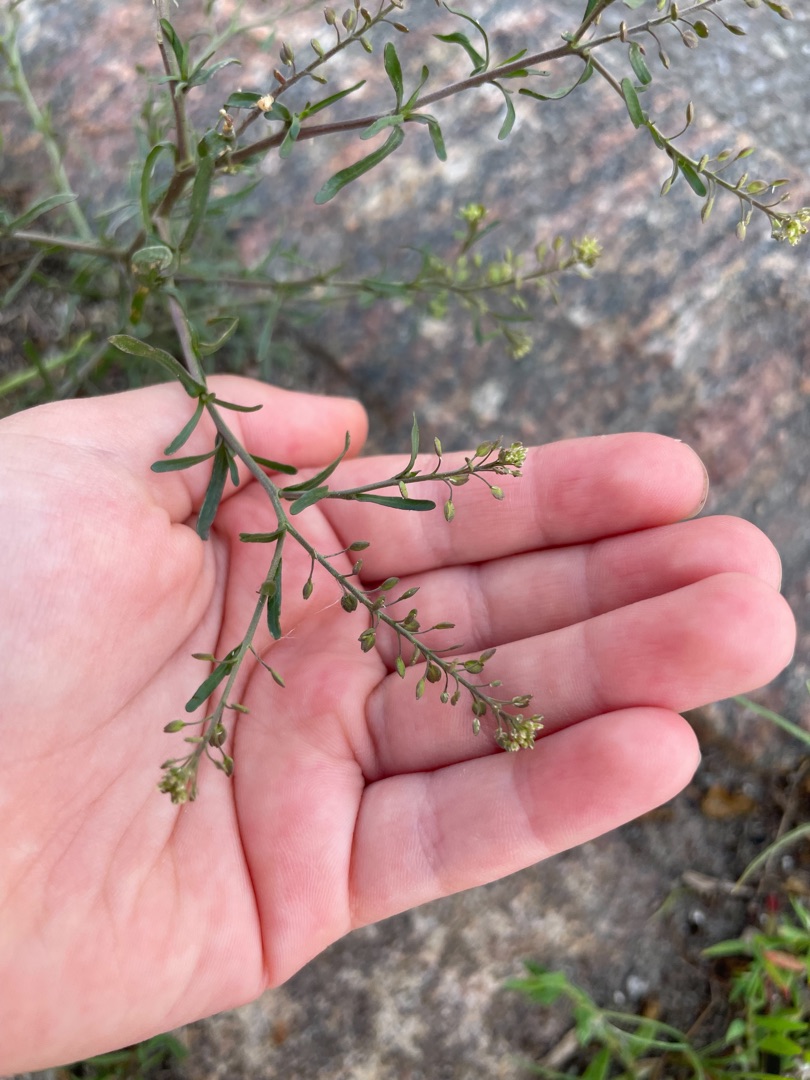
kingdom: Plantae
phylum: Tracheophyta
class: Magnoliopsida
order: Brassicales
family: Brassicaceae
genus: Lepidium
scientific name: Lepidium ruderale
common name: Stinkende karse
